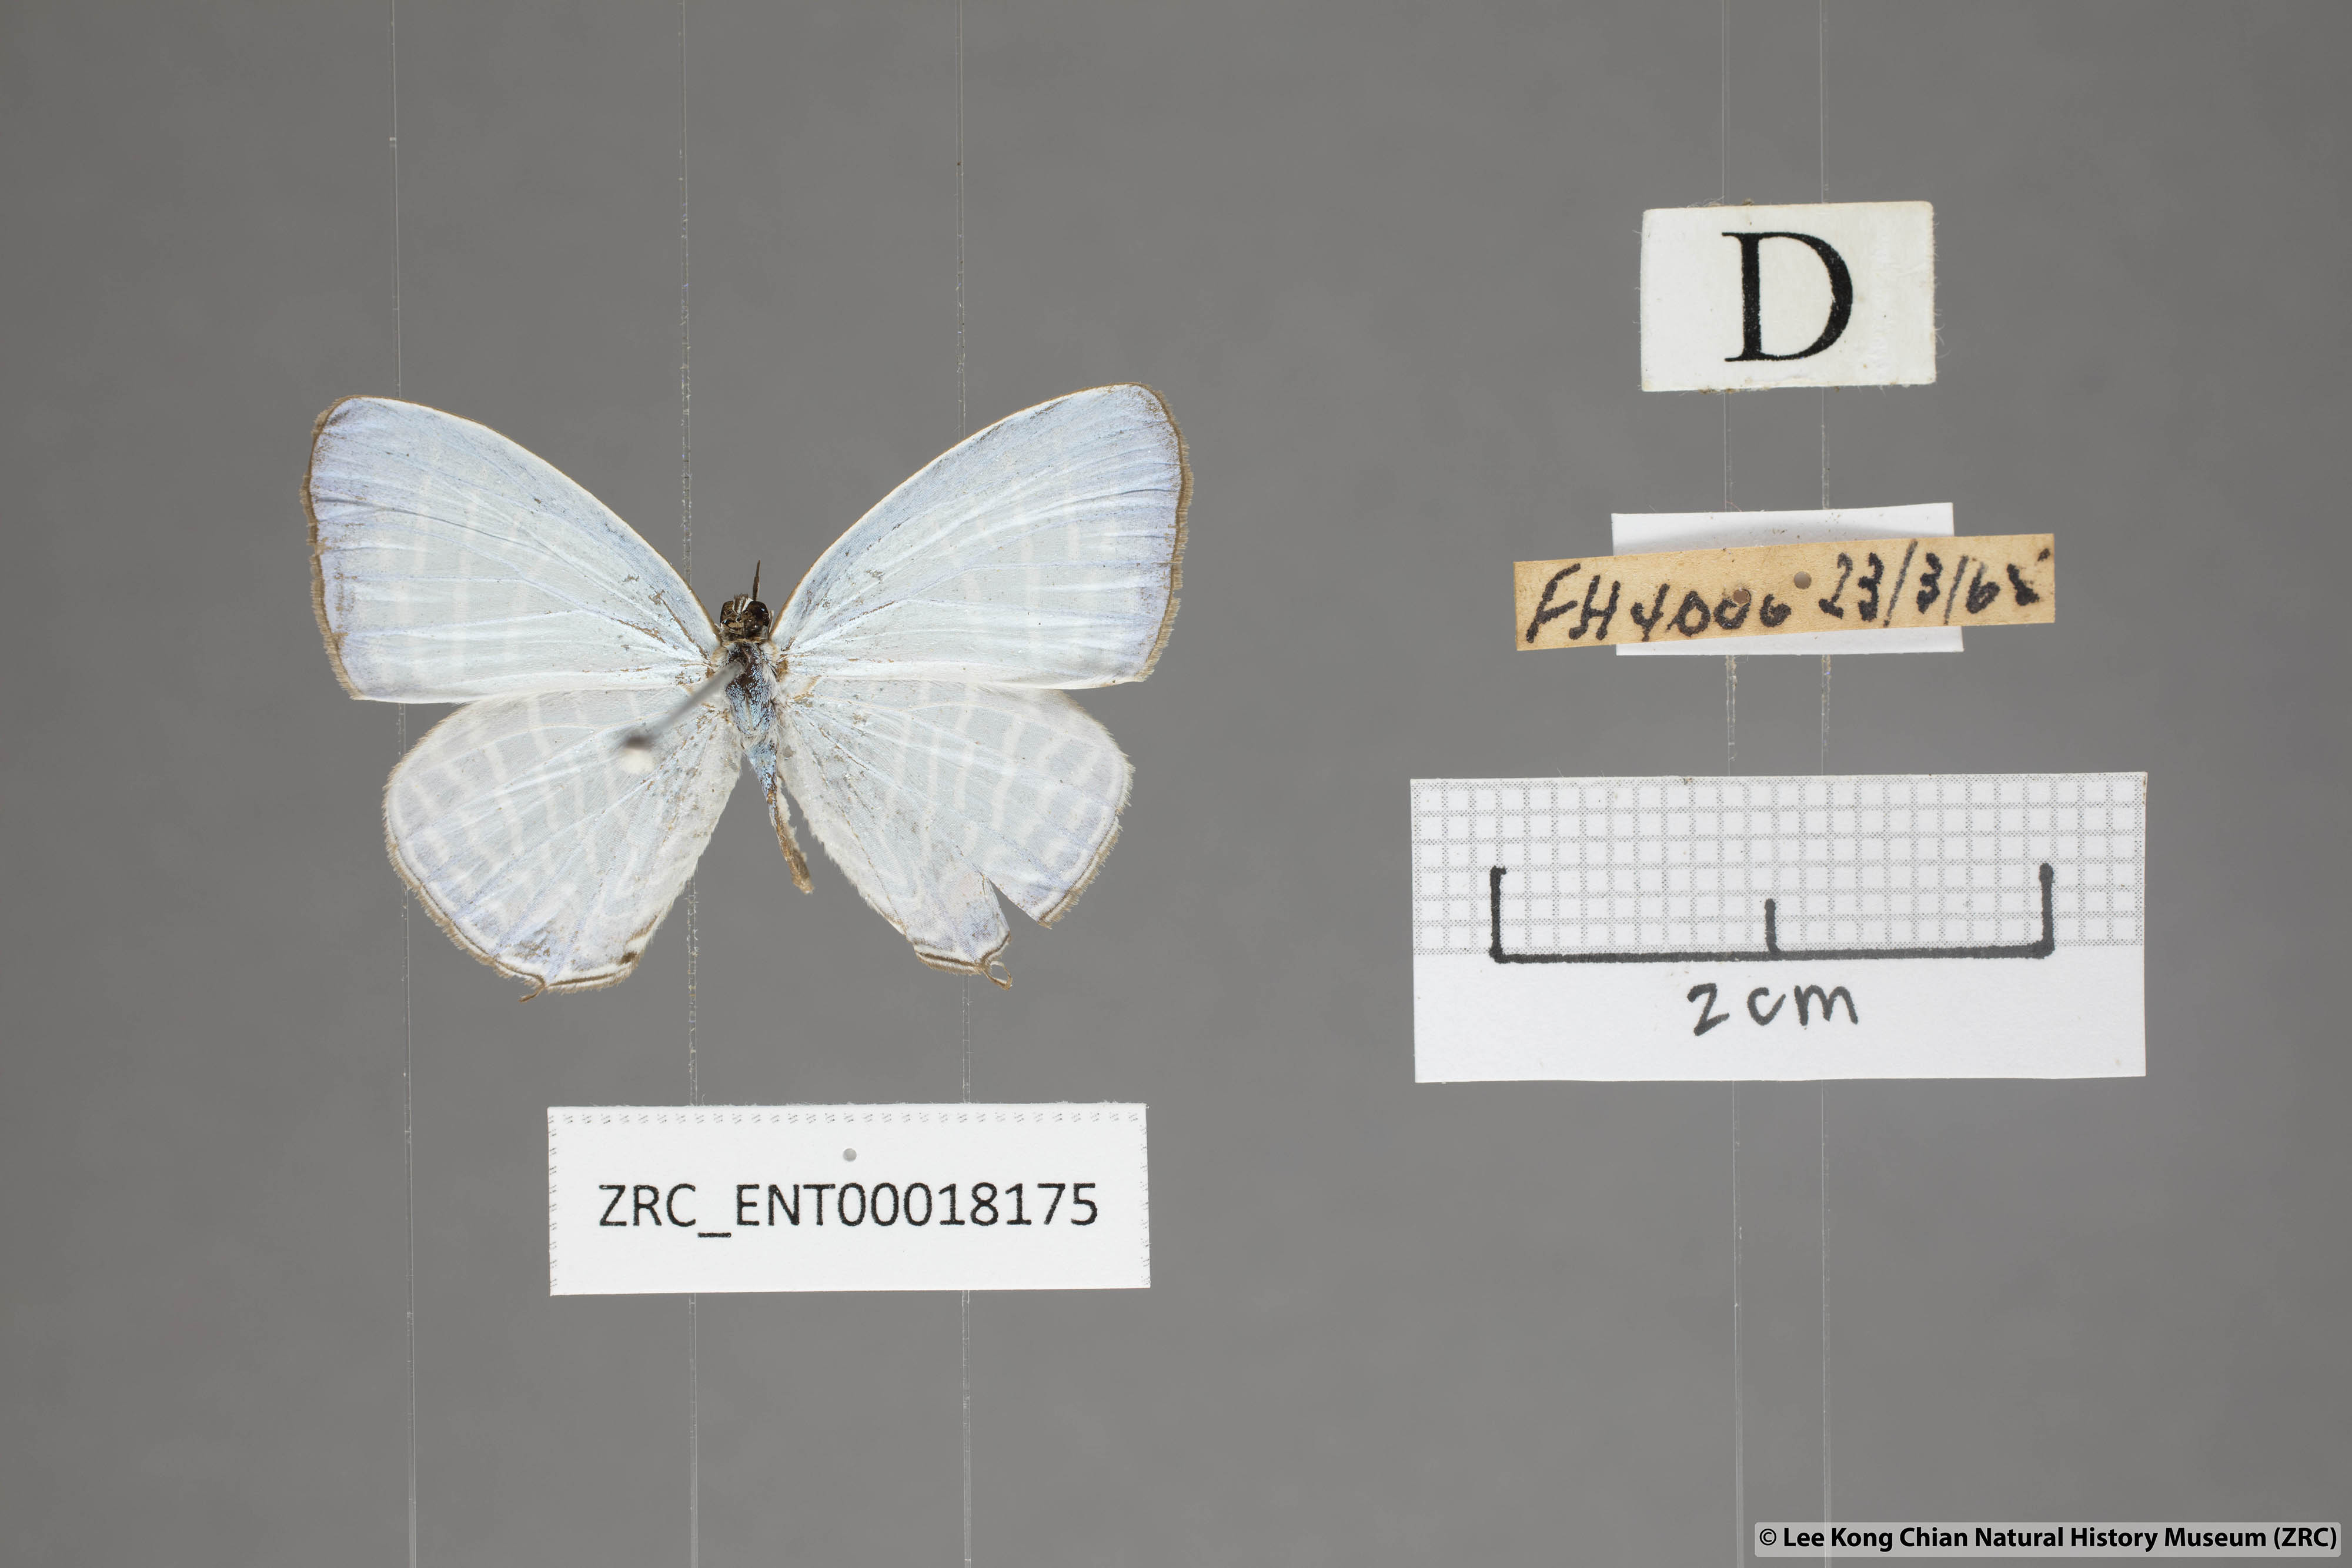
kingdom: Animalia
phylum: Arthropoda
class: Insecta
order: Lepidoptera
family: Lycaenidae
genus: Jamides
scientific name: Jamides pura
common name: White cerulean
